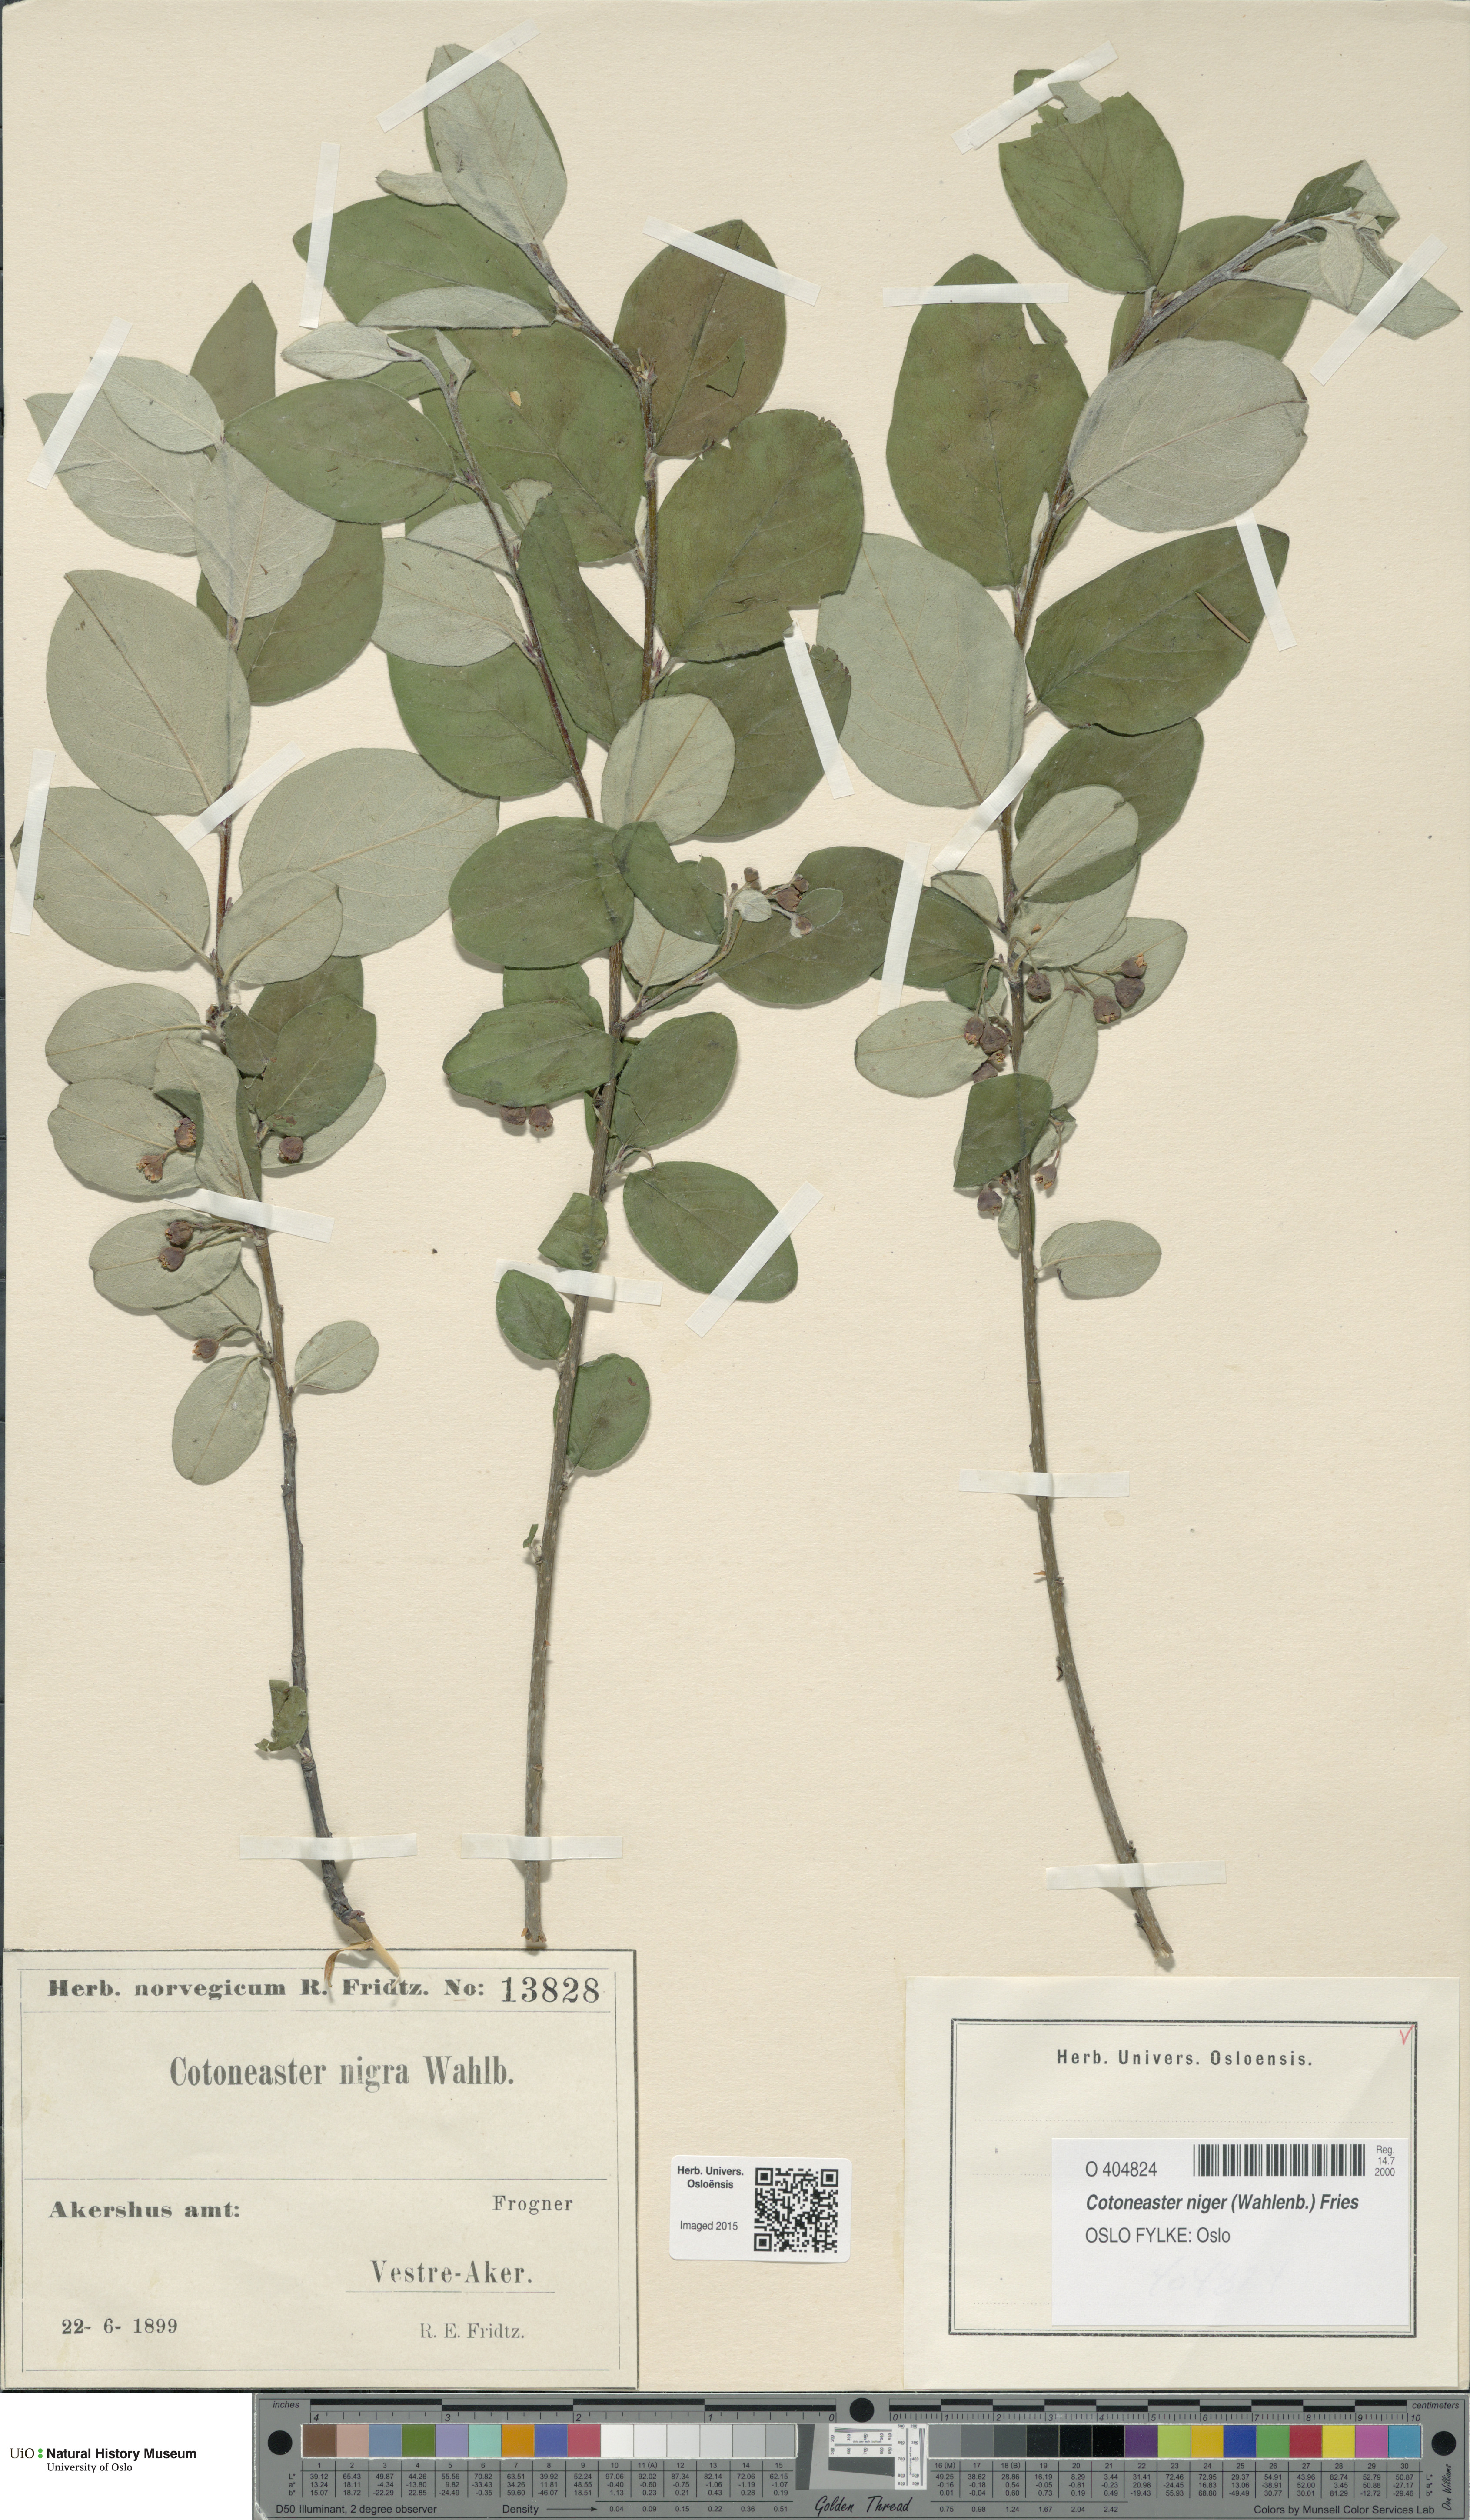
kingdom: Plantae
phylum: Tracheophyta
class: Magnoliopsida
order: Rosales
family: Rosaceae
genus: Cotoneaster
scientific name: Cotoneaster niger
